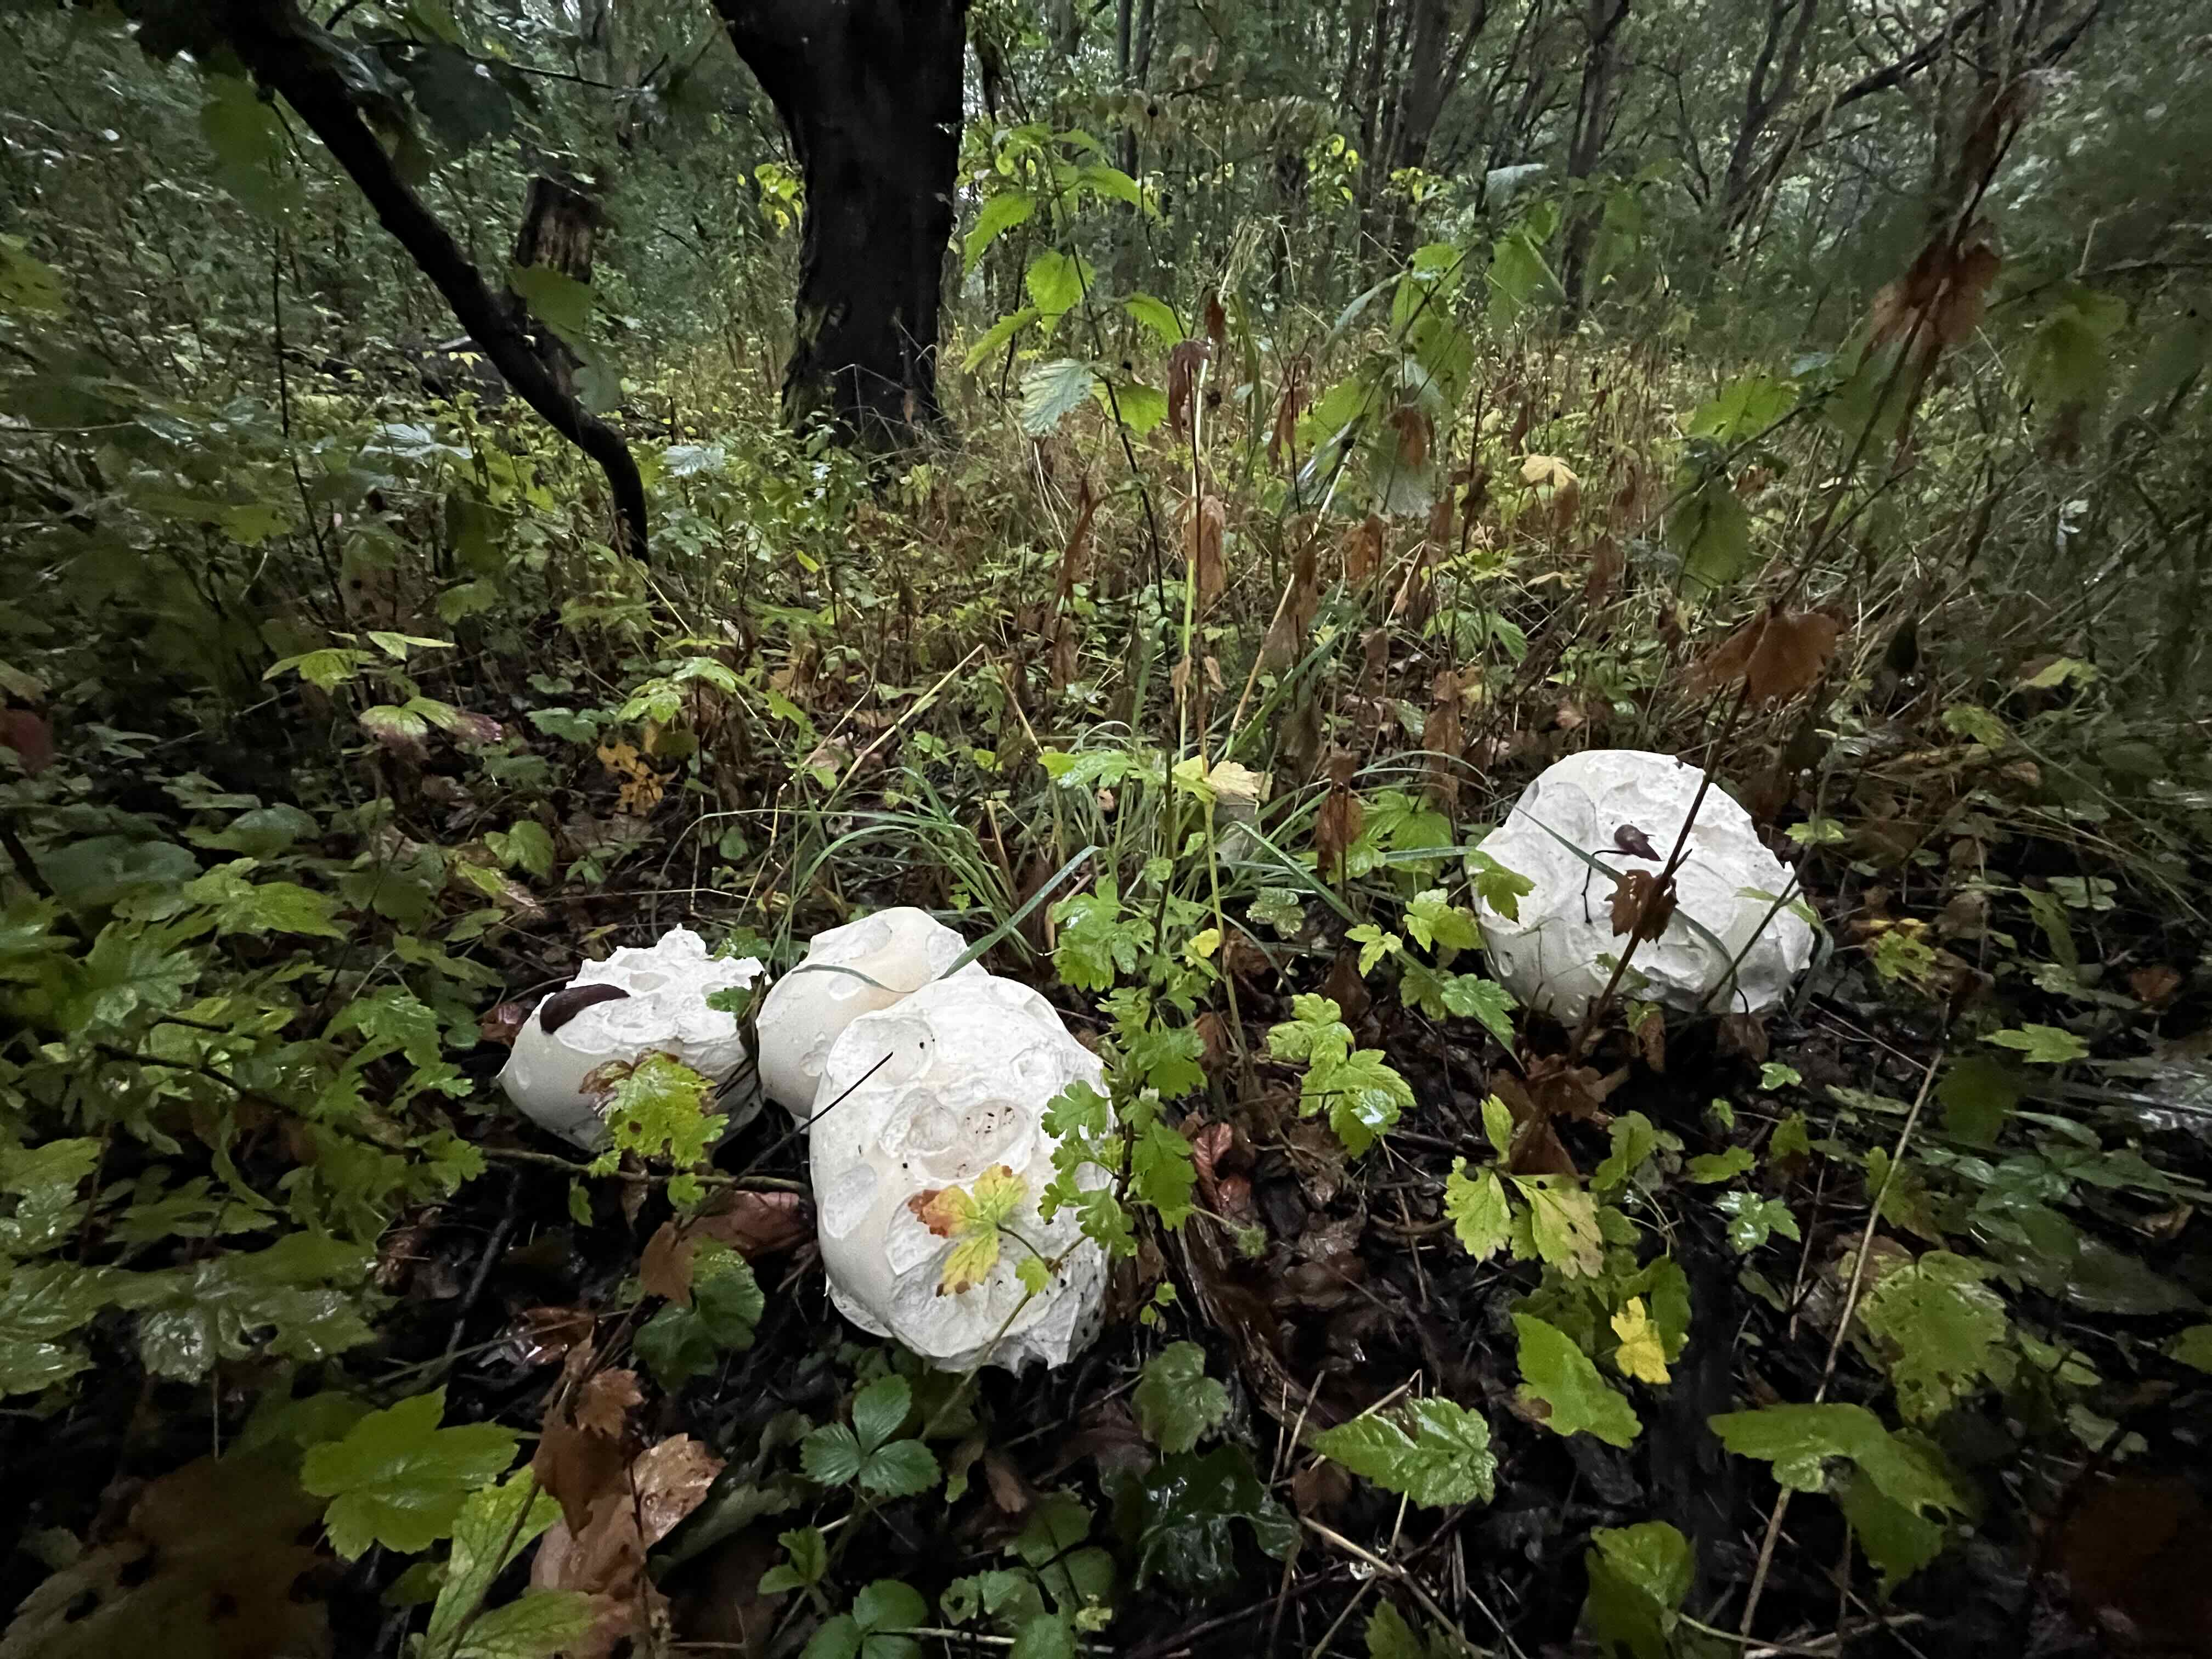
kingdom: Fungi
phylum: Basidiomycota
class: Agaricomycetes
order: Agaricales
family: Lycoperdaceae
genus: Calvatia
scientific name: Calvatia gigantea
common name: kæmpestøvbold
